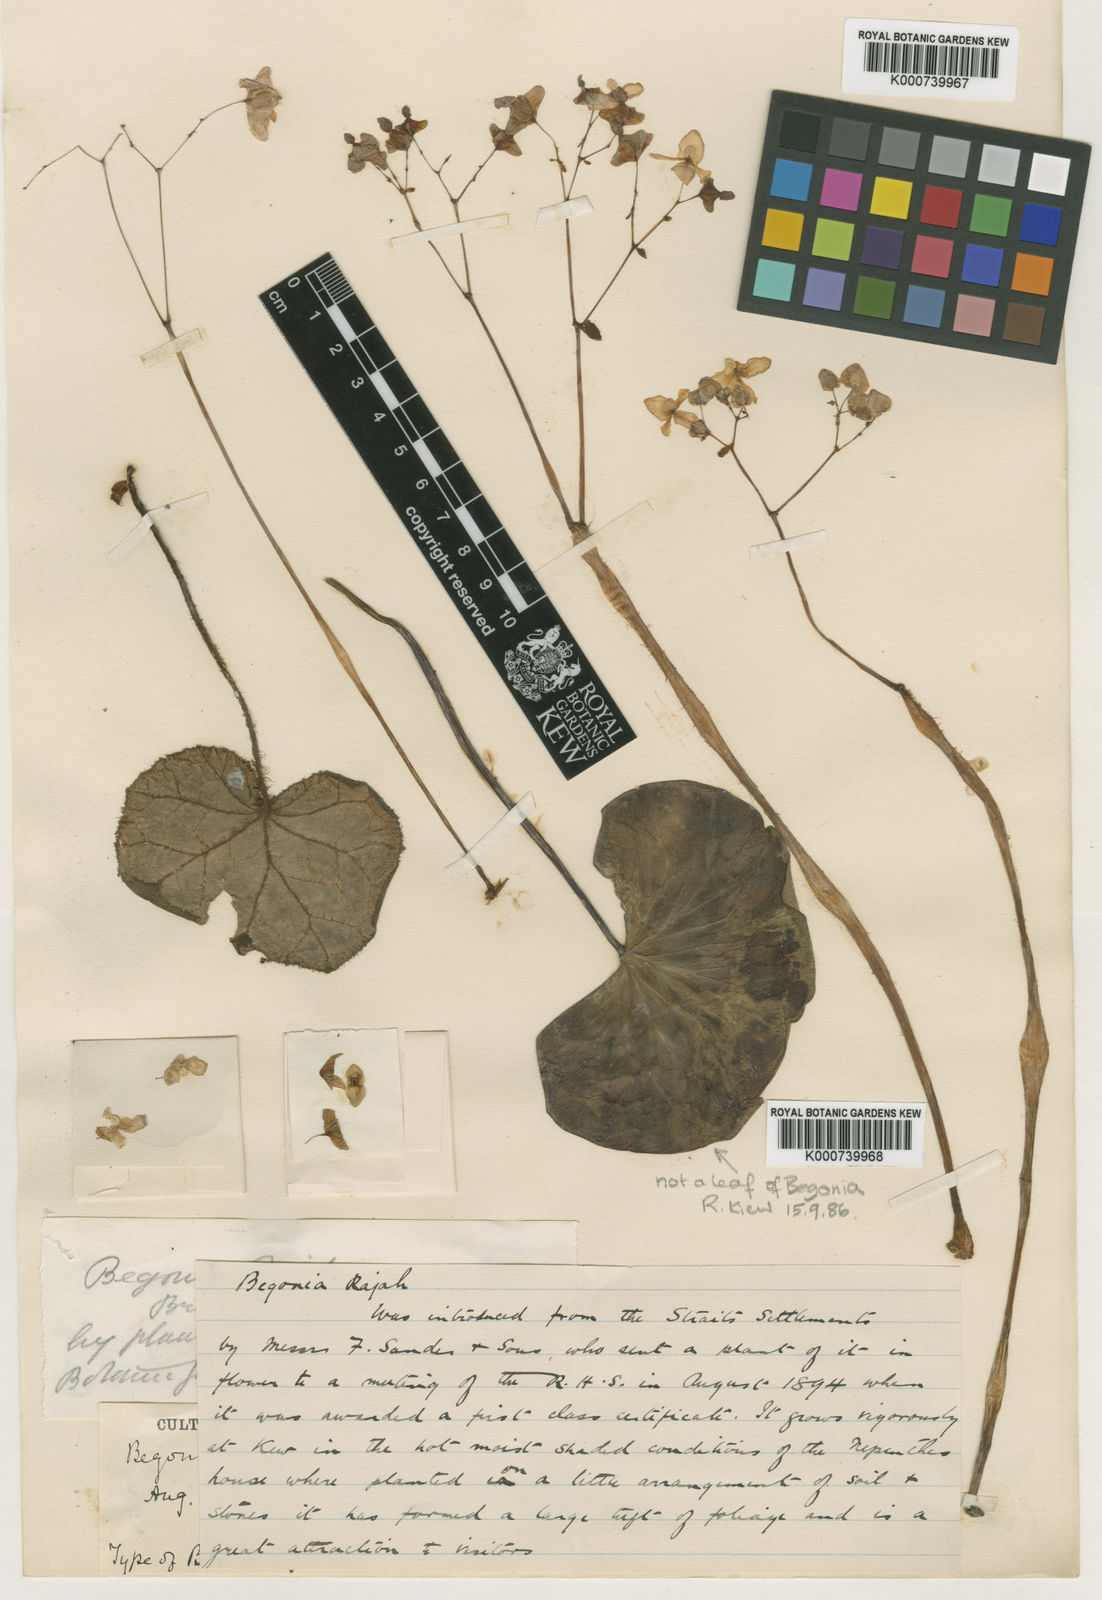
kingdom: Plantae
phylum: Tracheophyta
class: Magnoliopsida
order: Cucurbitales
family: Begoniaceae
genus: Begonia
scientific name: Begonia rajah
